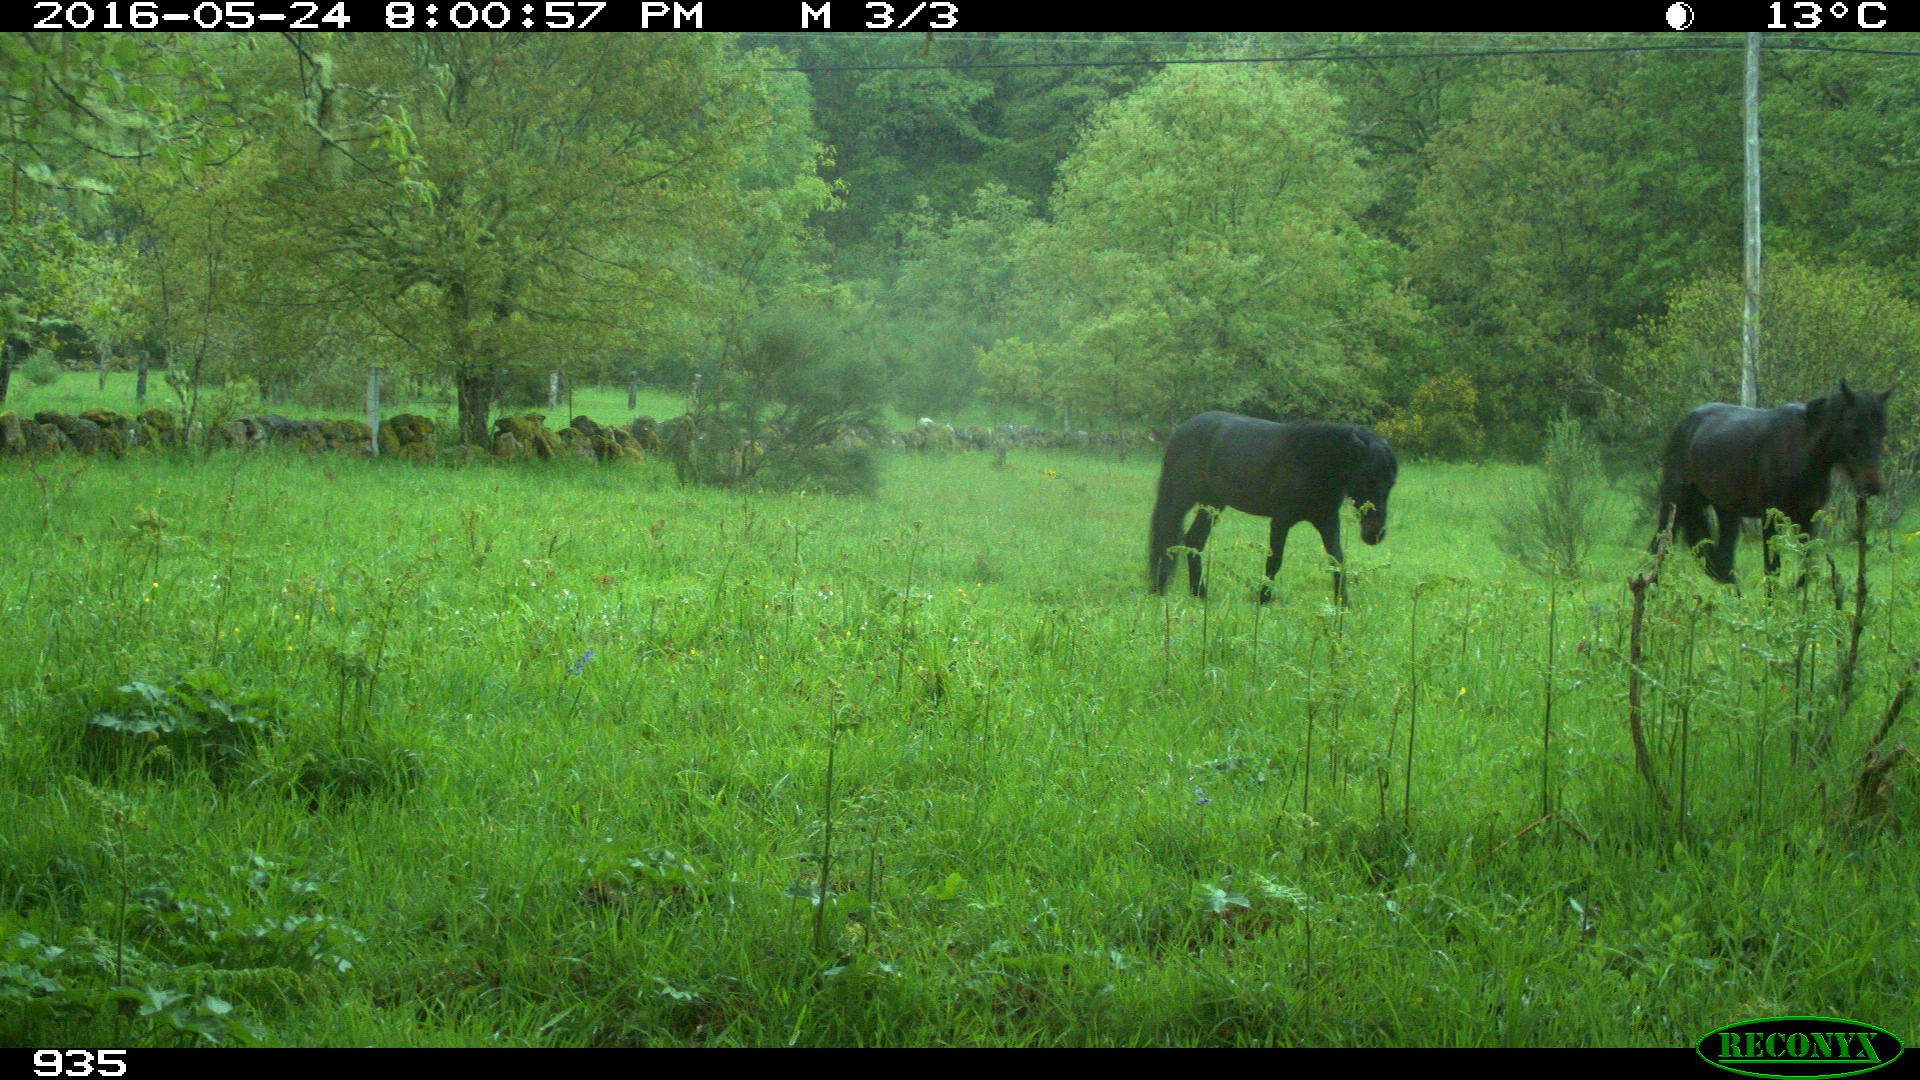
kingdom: Animalia
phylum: Chordata
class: Mammalia
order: Perissodactyla
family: Equidae
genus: Equus
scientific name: Equus caballus
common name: Horse
